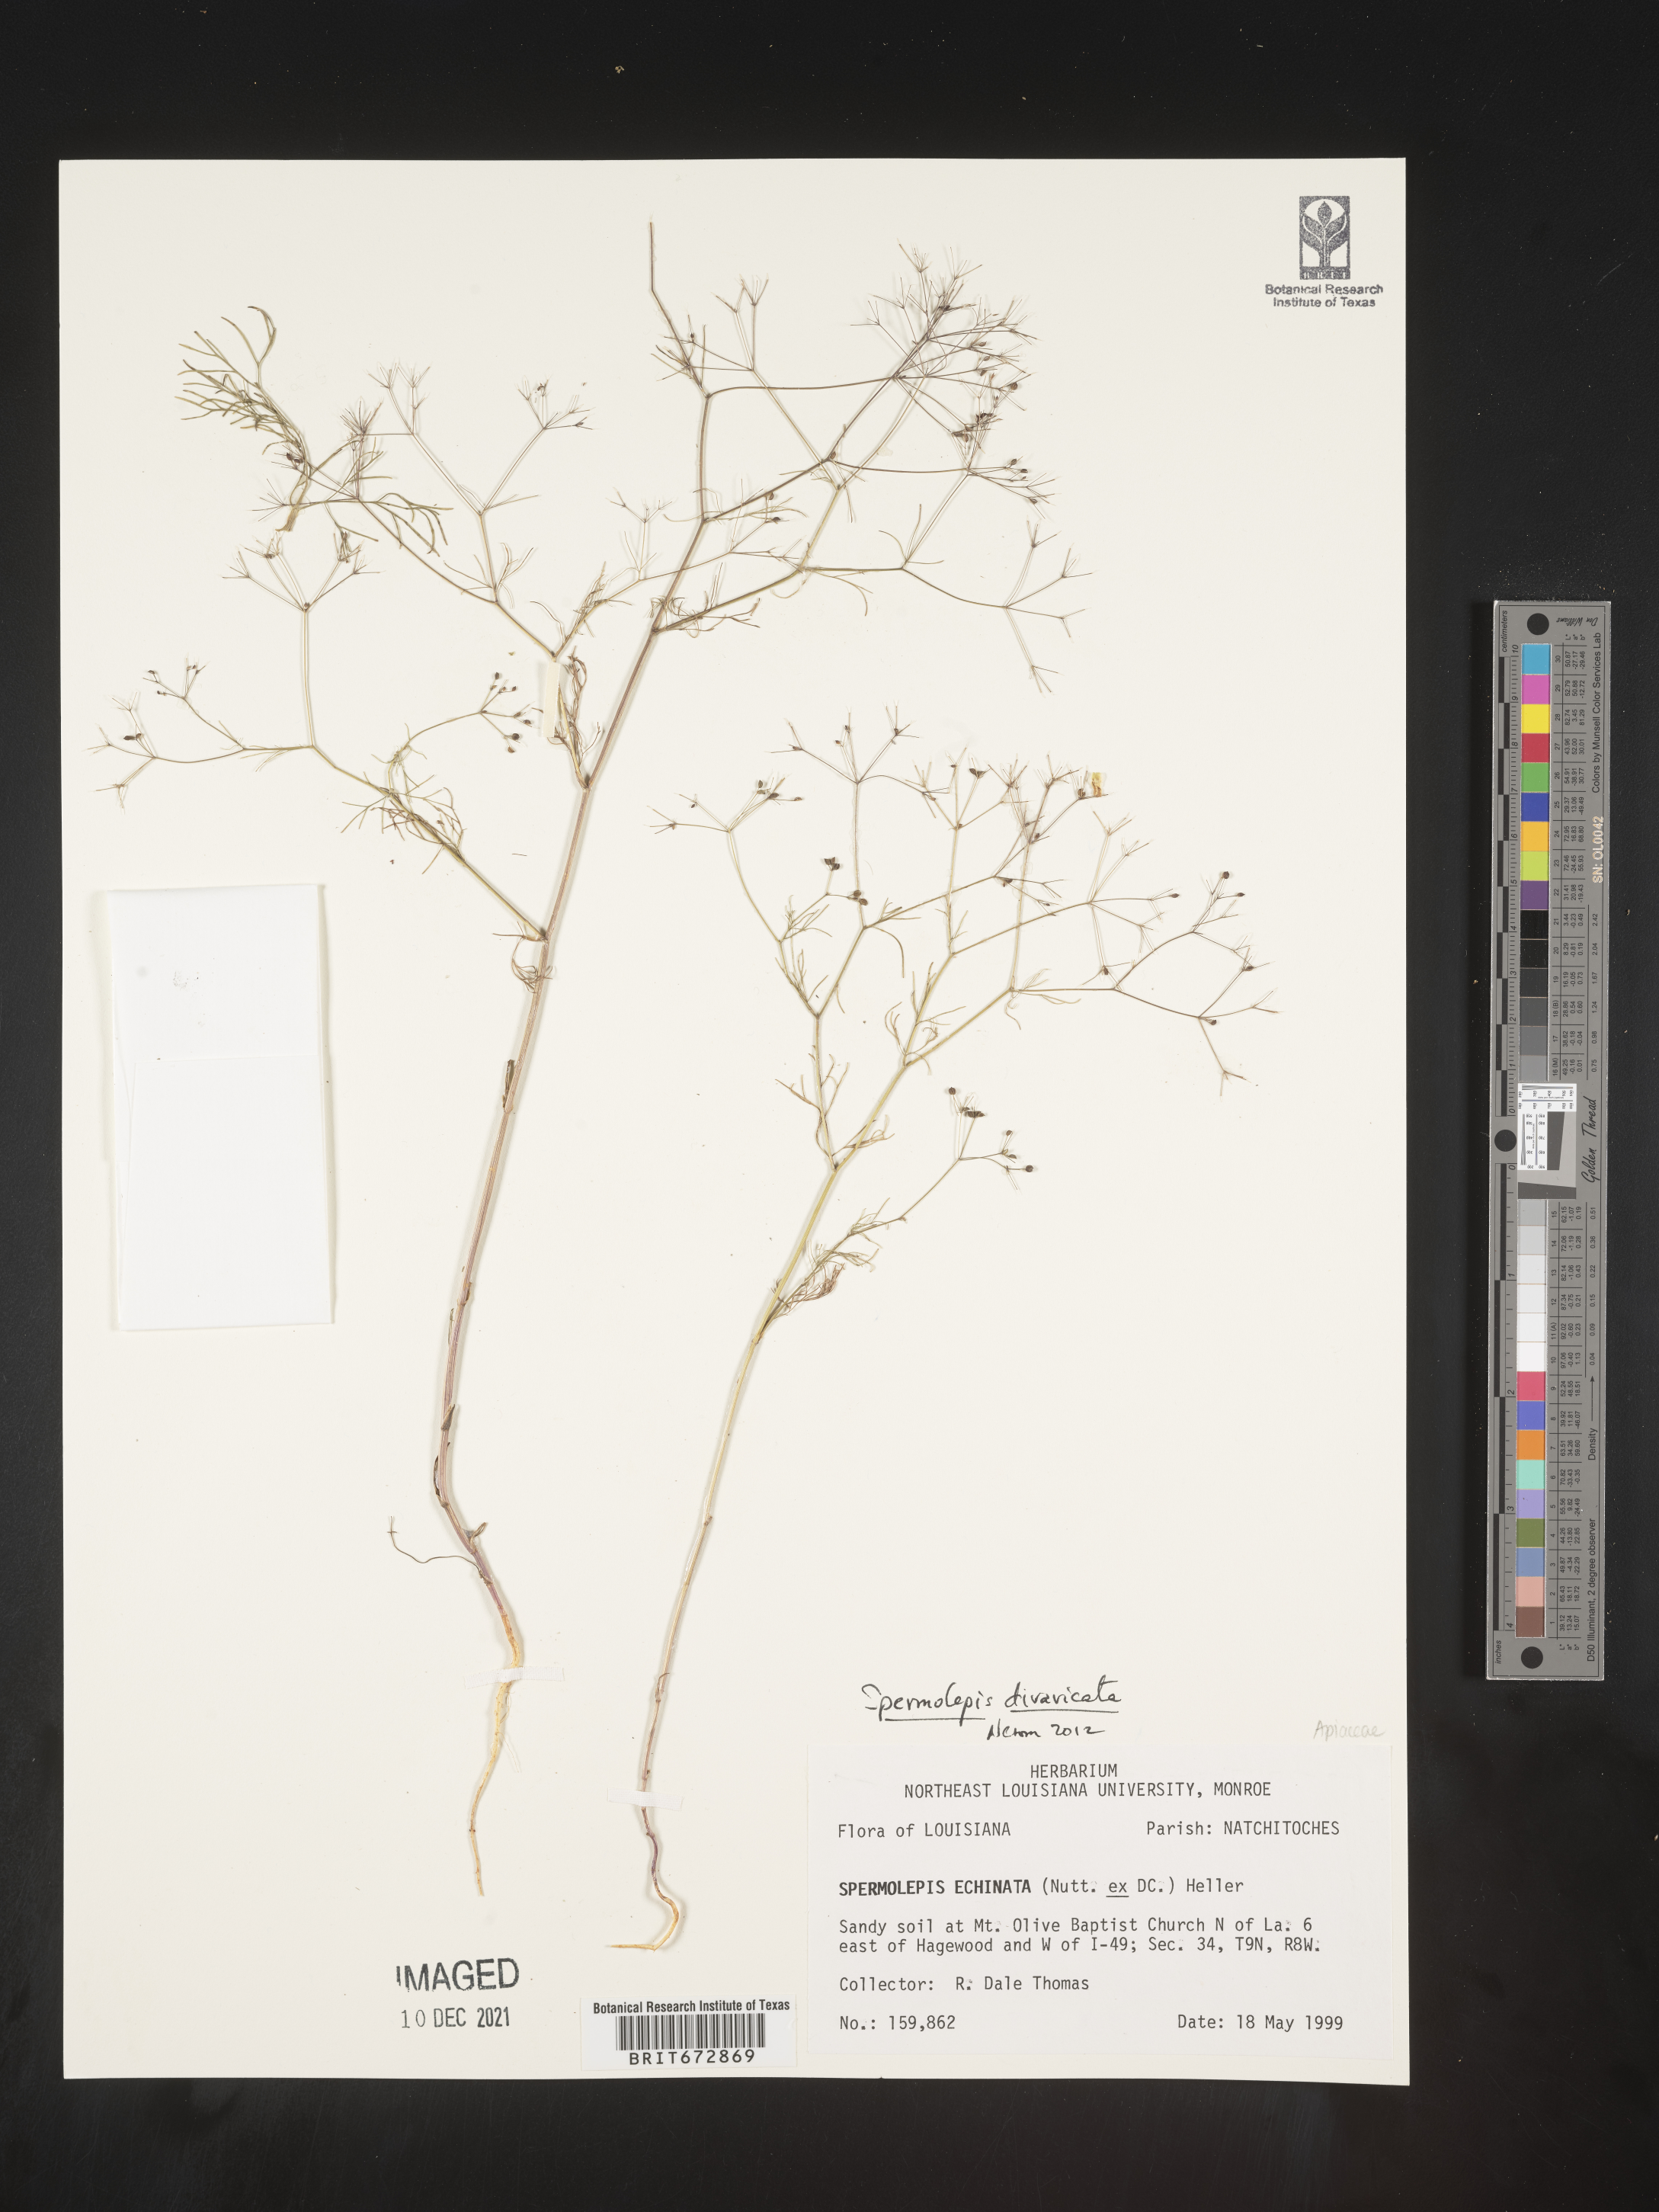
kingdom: Plantae
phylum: Tracheophyta
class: Magnoliopsida
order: Apiales
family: Apiaceae
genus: Spermolepis
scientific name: Spermolepis divaricata
